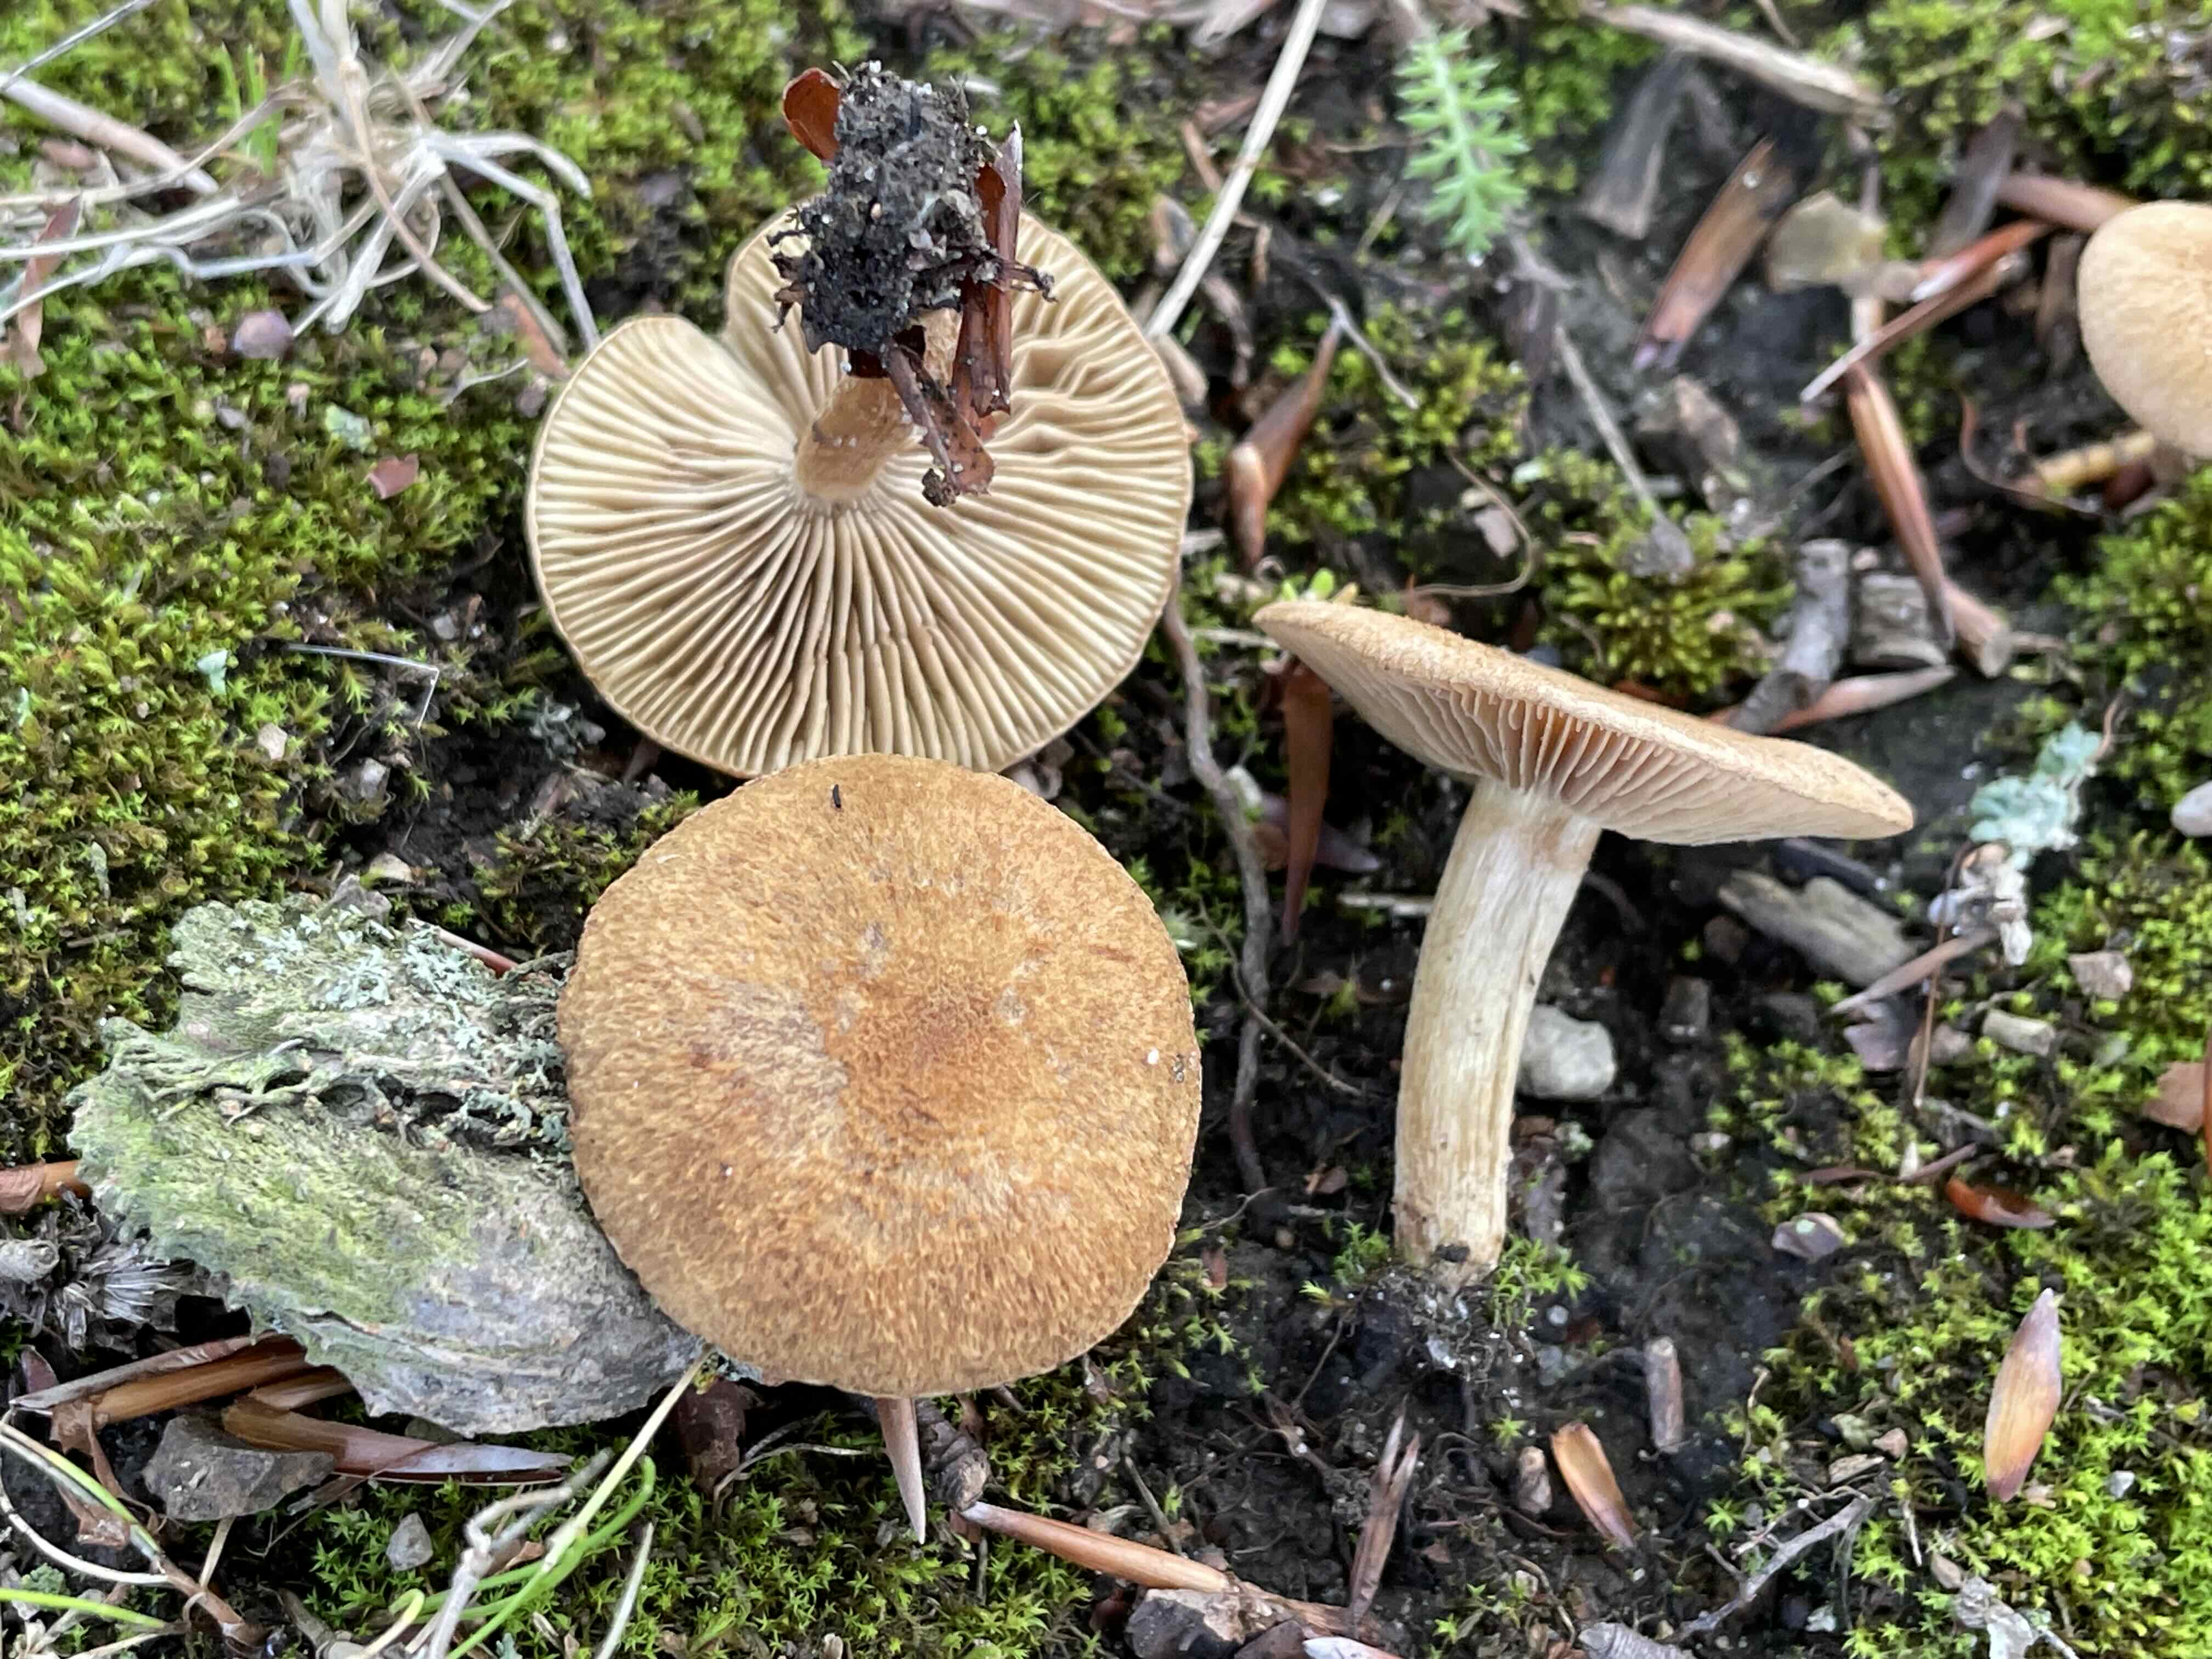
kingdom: Fungi
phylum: Basidiomycota
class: Agaricomycetes
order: Agaricales
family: Inocybaceae
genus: Inocybe
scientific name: Inocybe dulcamara
